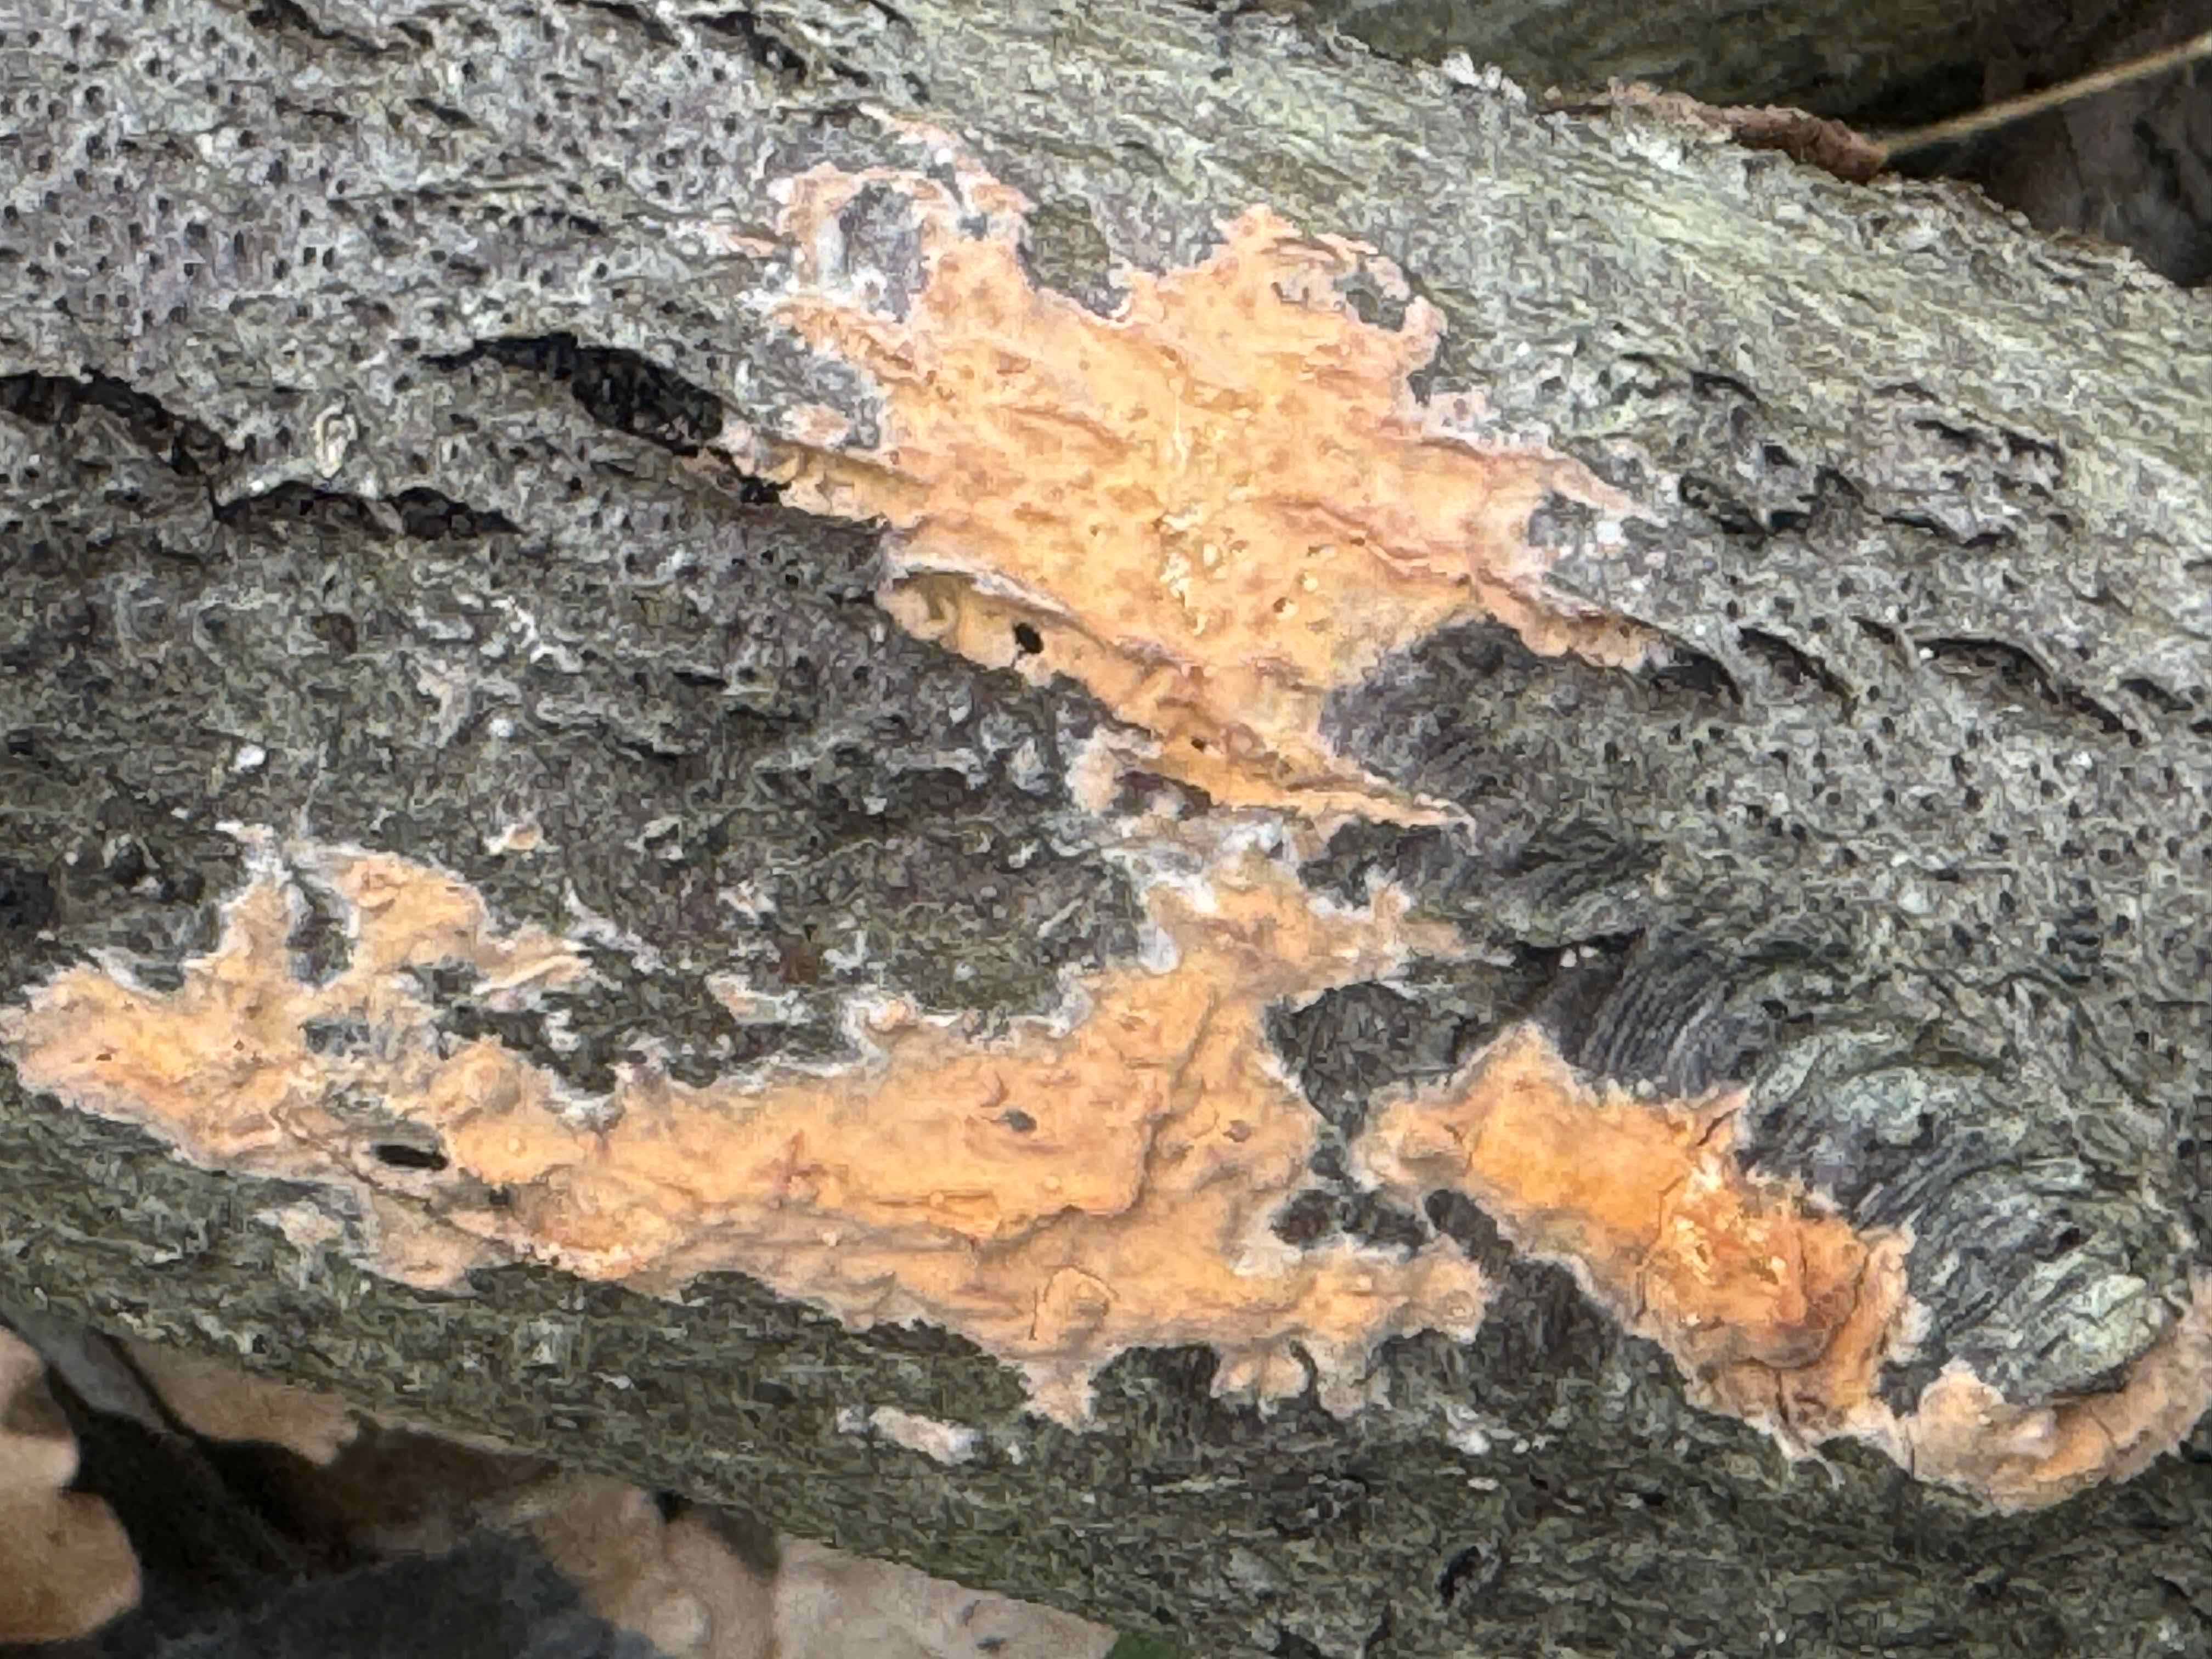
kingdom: Fungi
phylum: Basidiomycota
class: Agaricomycetes
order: Russulales
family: Peniophoraceae
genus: Peniophora
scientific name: Peniophora incarnata
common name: laksefarvet voksskind
